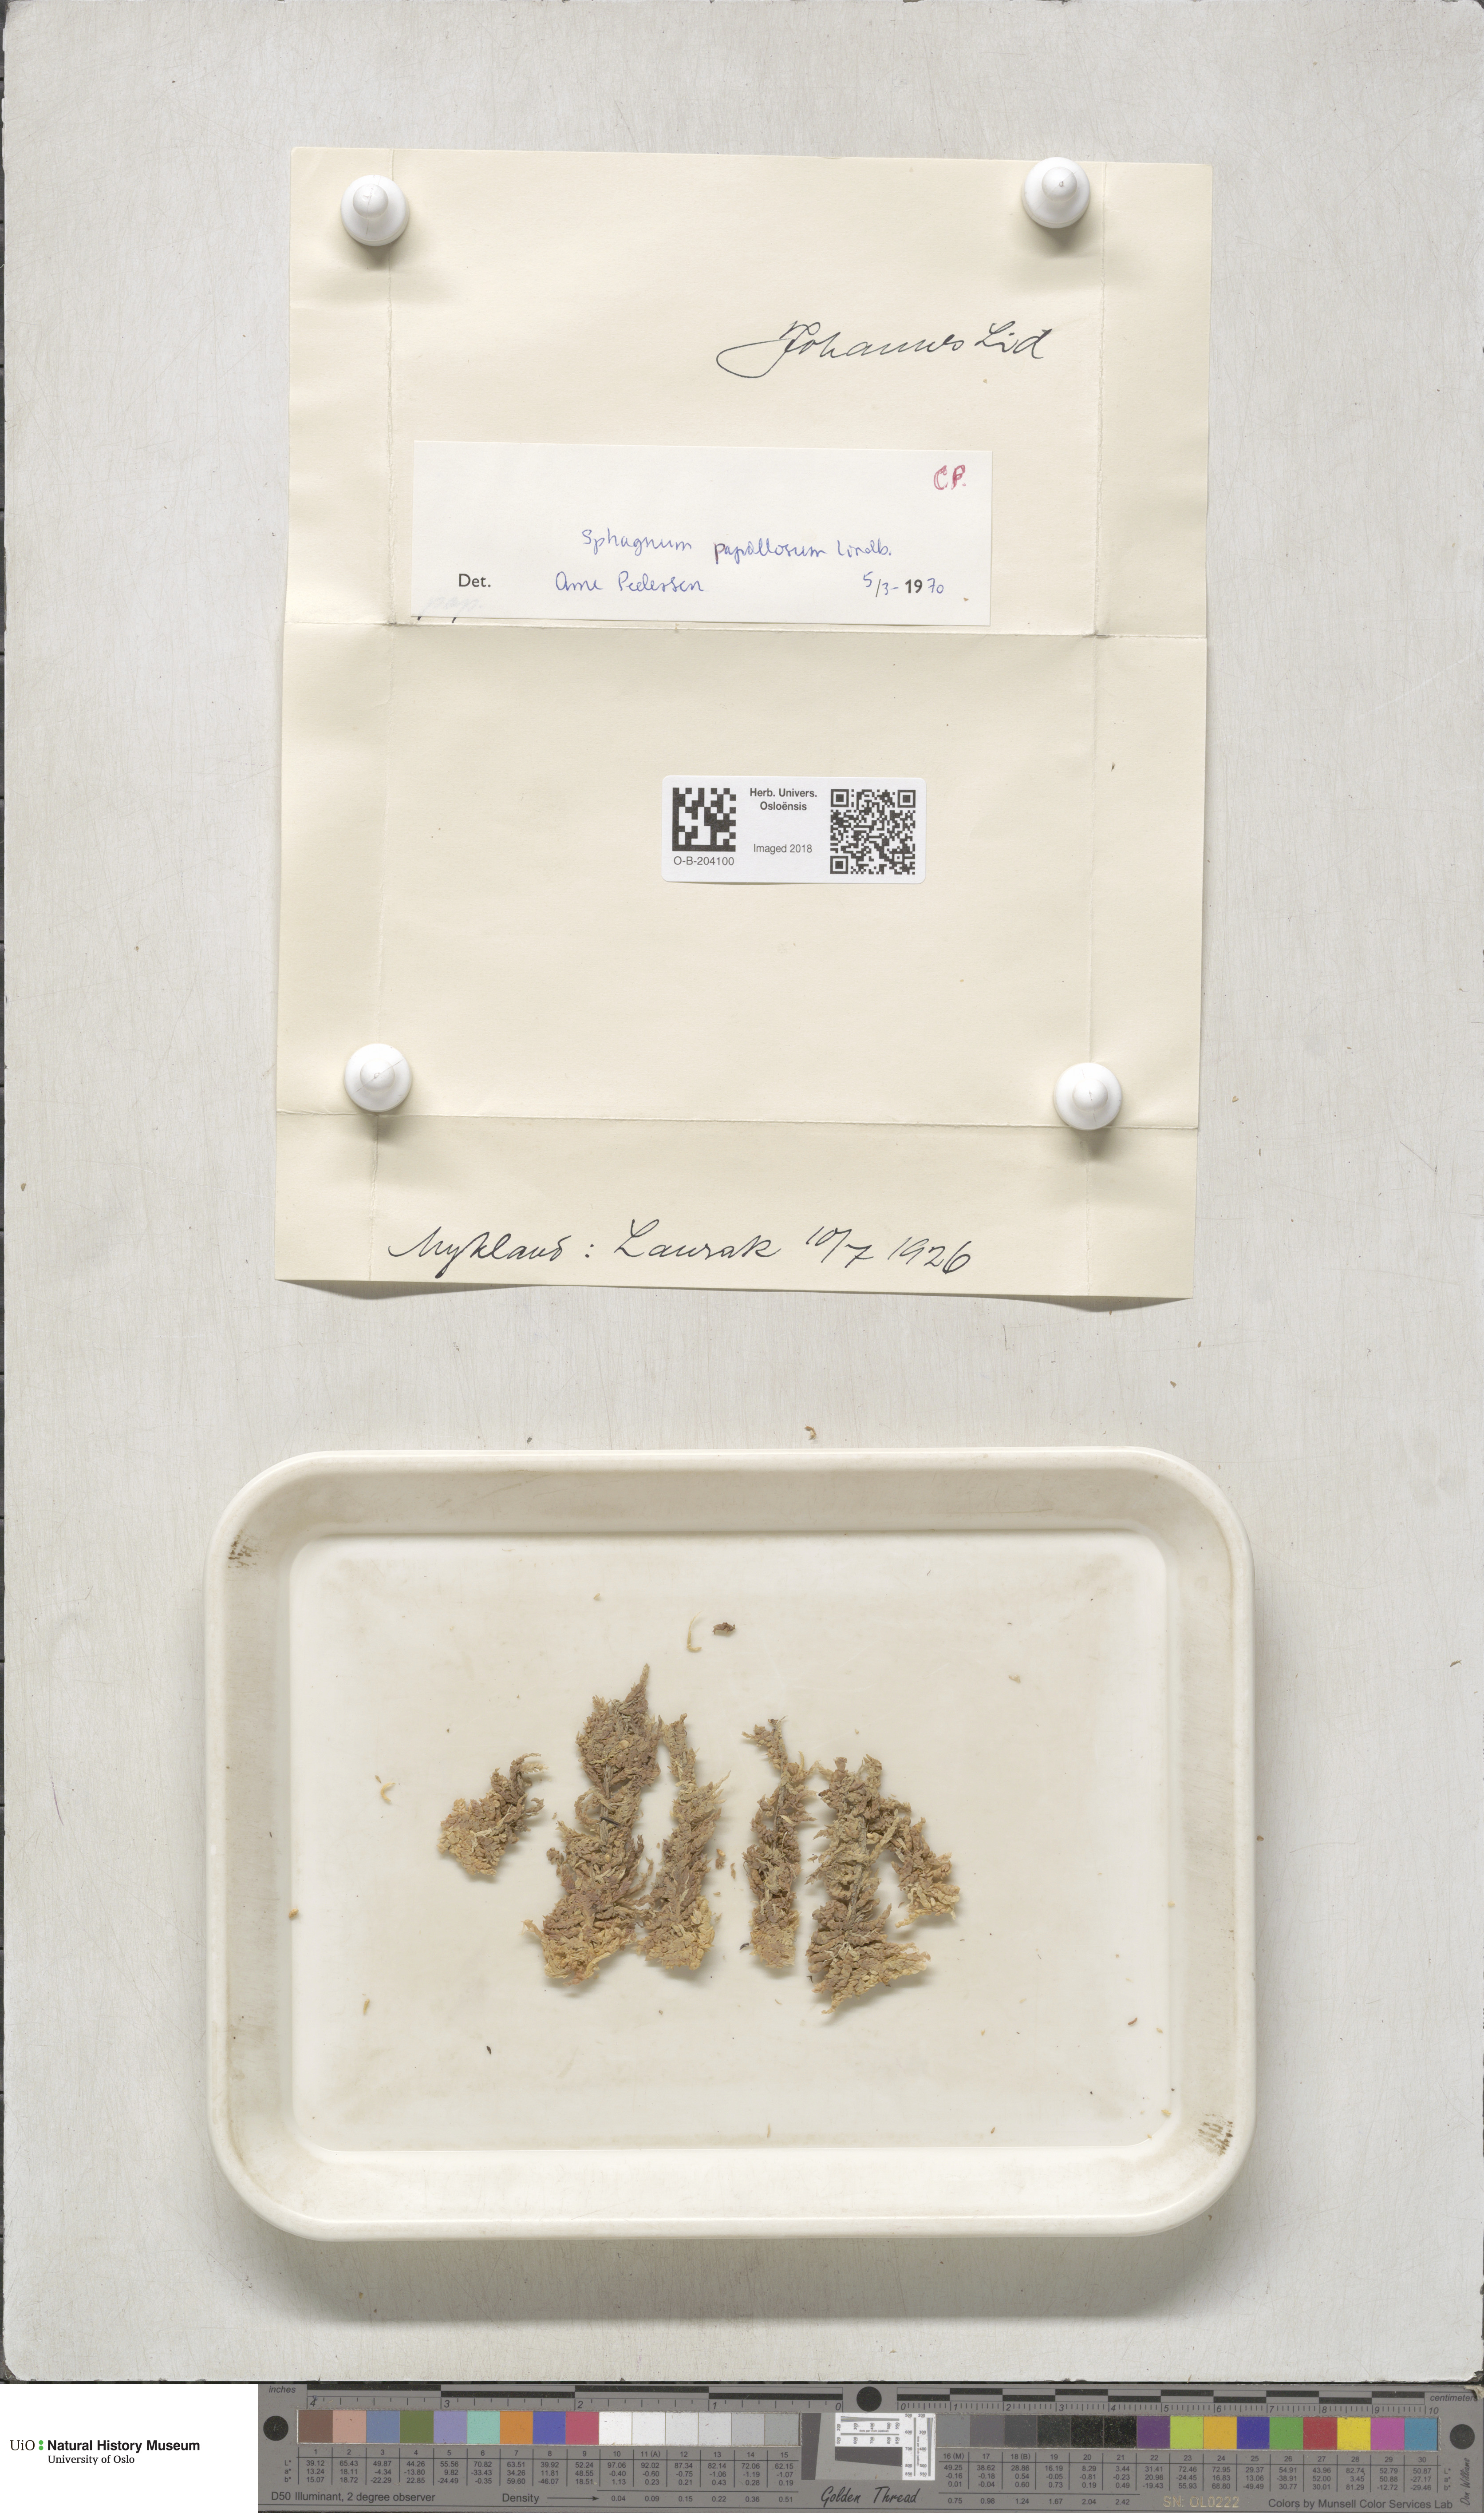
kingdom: Plantae
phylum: Bryophyta
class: Sphagnopsida
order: Sphagnales
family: Sphagnaceae
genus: Sphagnum
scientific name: Sphagnum papillosum
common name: Papillose peat moss
